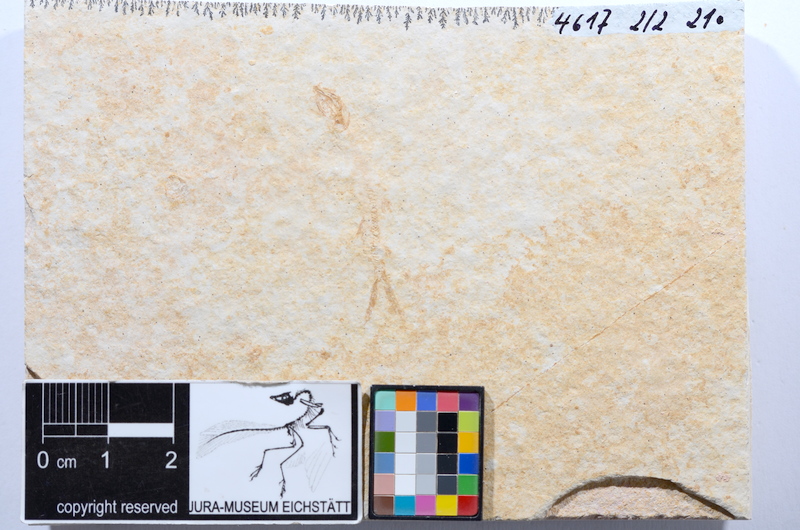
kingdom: Animalia
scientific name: Animalia
